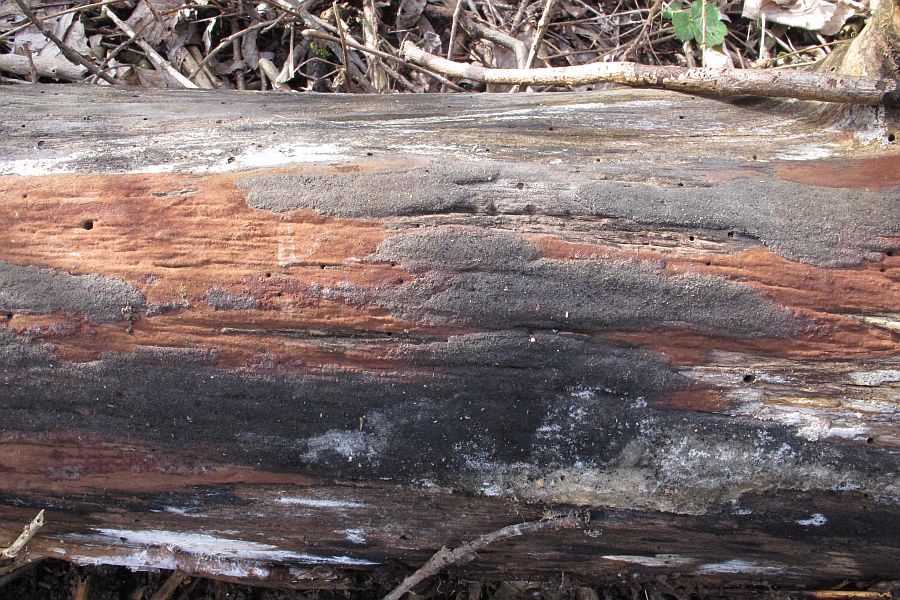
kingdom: Fungi
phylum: Ascomycota
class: Sordariomycetes
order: Xylariales
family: Hypoxylaceae
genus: Hypoxylon
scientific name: Hypoxylon macrocarpum
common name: skorpe-kulbær
